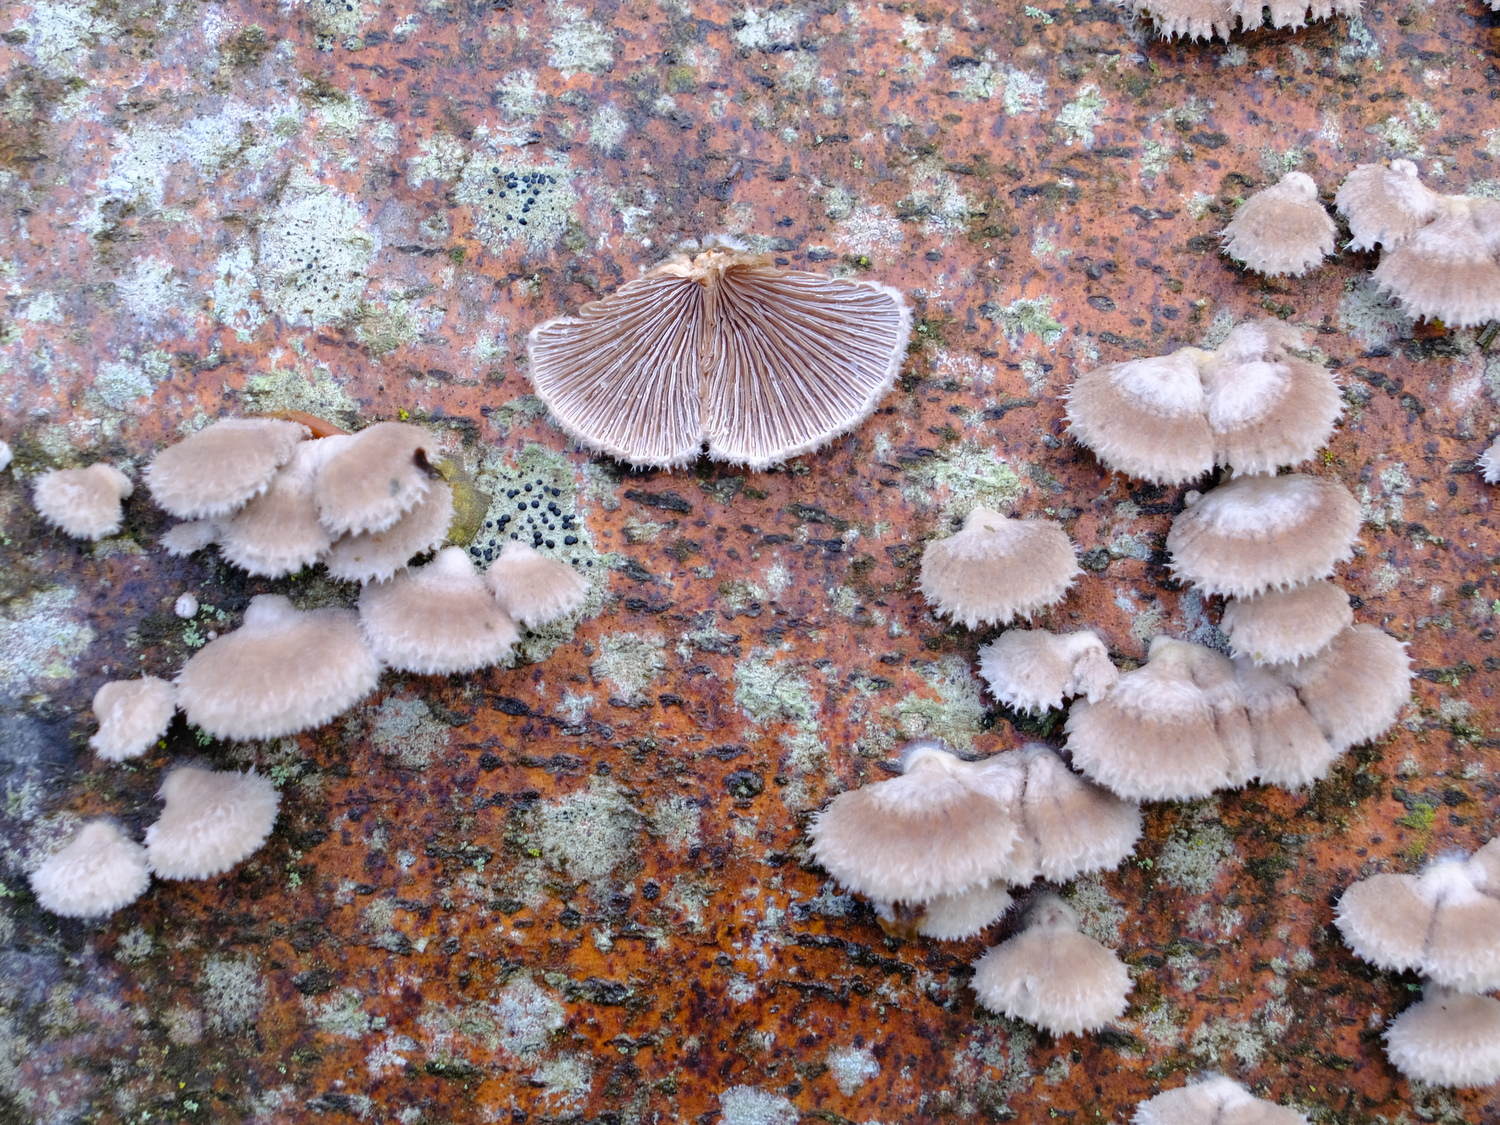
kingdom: Fungi
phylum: Basidiomycota
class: Agaricomycetes
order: Agaricales
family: Schizophyllaceae
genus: Schizophyllum
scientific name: Schizophyllum commune
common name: kløvblad
